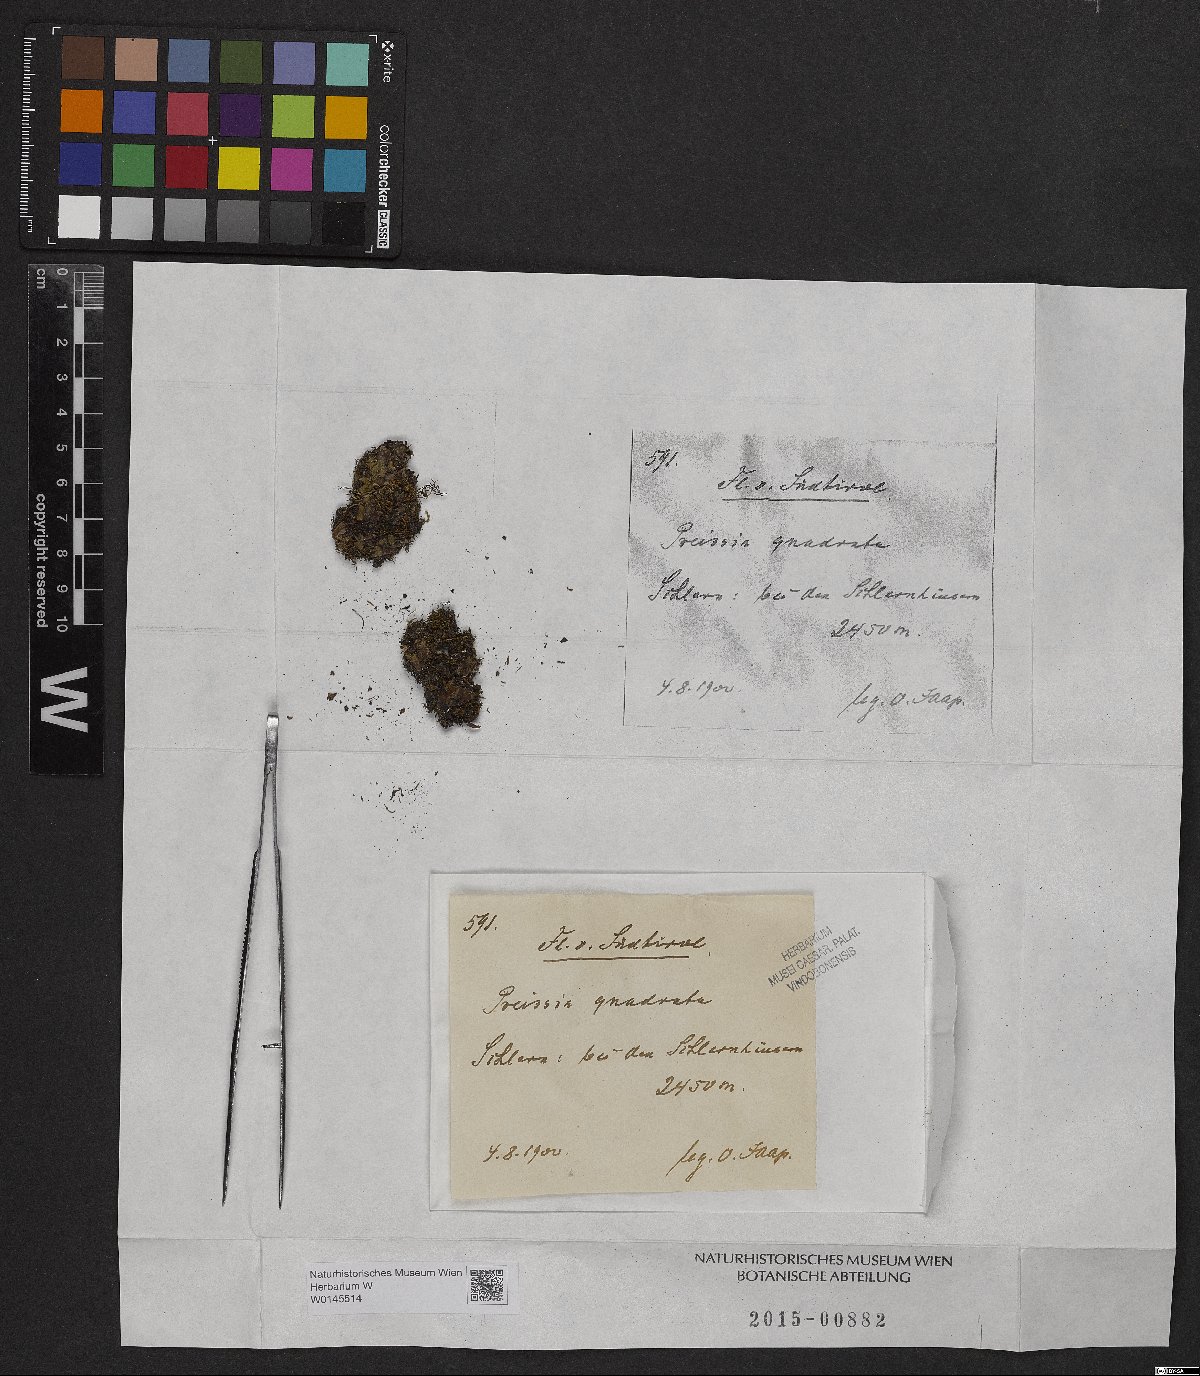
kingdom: Plantae
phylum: Marchantiophyta
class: Marchantiopsida
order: Marchantiales
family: Marchantiaceae
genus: Marchantia
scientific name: Marchantia quadrata
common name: Narrow mushroom-headed liverwort
